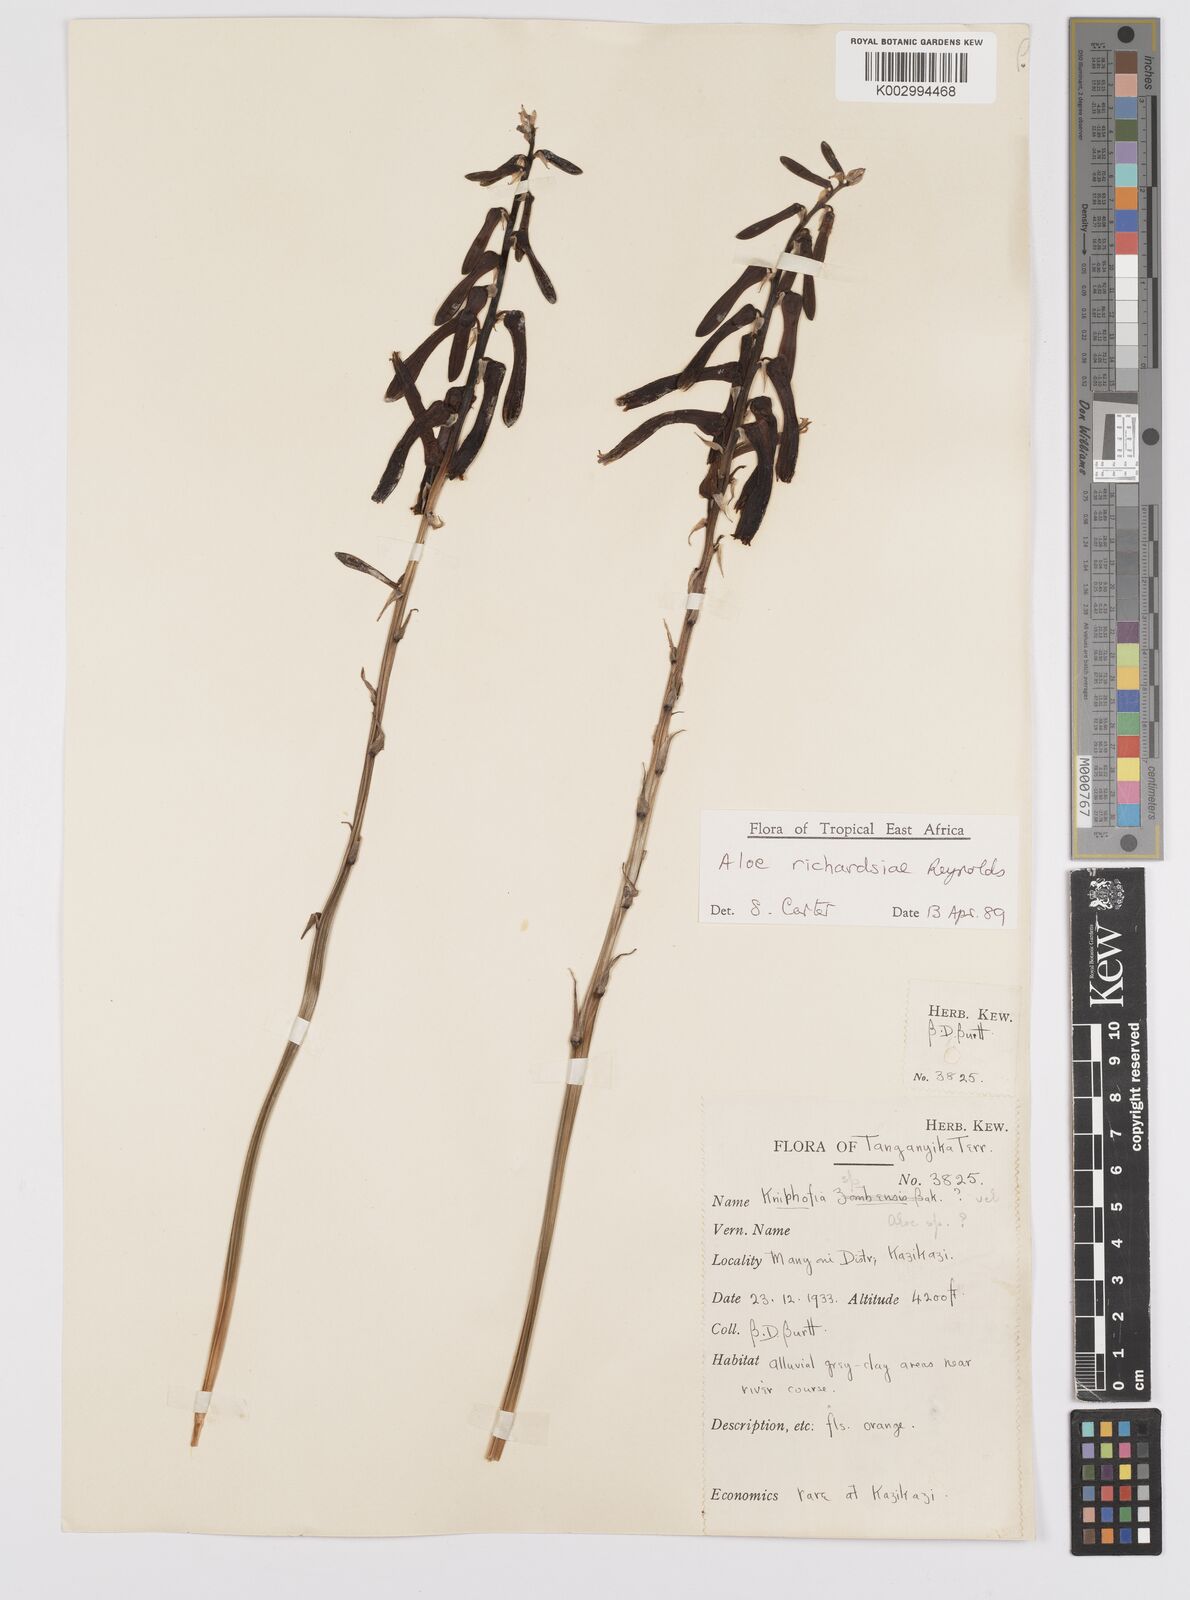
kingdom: Plantae
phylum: Tracheophyta
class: Liliopsida
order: Asparagales
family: Asphodelaceae
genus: Aloe
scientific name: Aloe richardsiae
